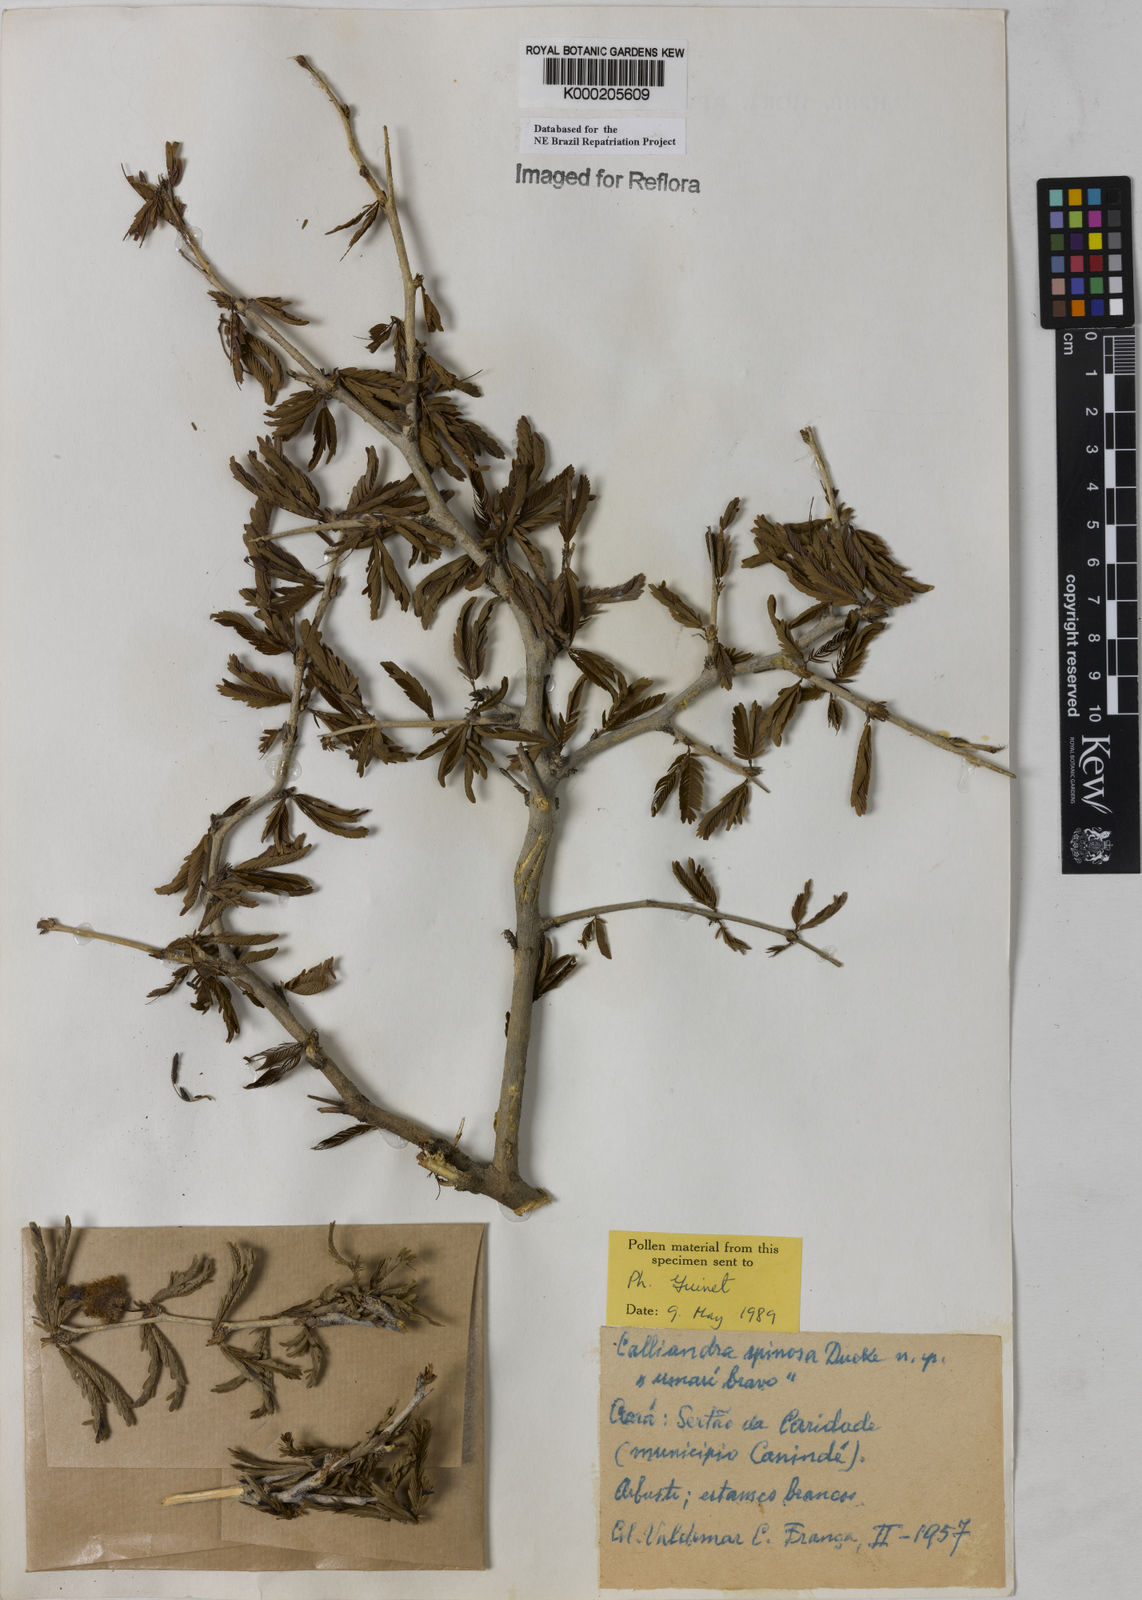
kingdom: Plantae
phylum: Tracheophyta
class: Magnoliopsida
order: Fabales
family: Fabaceae
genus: Calliandra
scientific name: Calliandra spinosa
